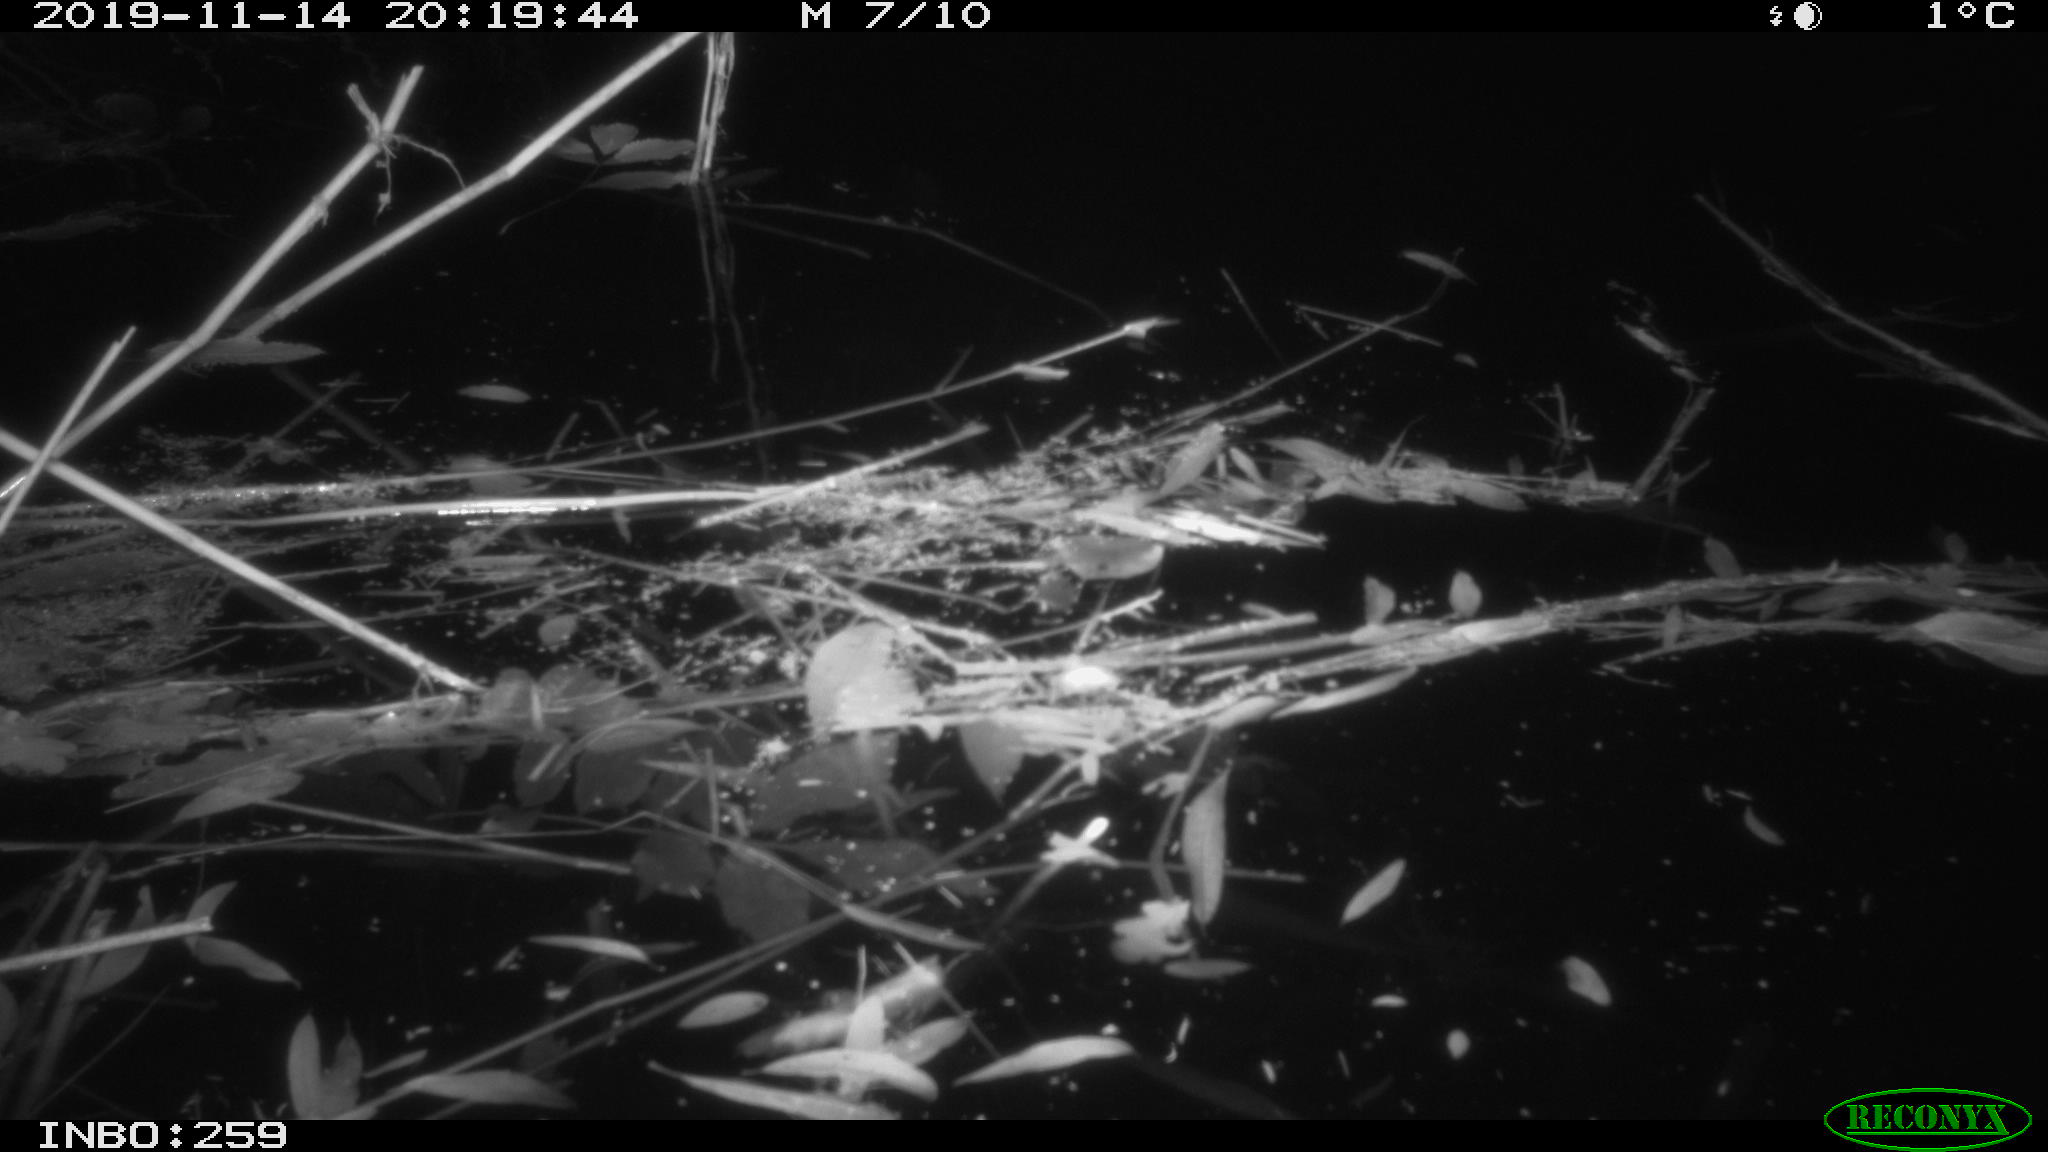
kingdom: Animalia
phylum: Chordata
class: Mammalia
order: Rodentia
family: Muridae
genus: Rattus
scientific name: Rattus norvegicus
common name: Brown rat
